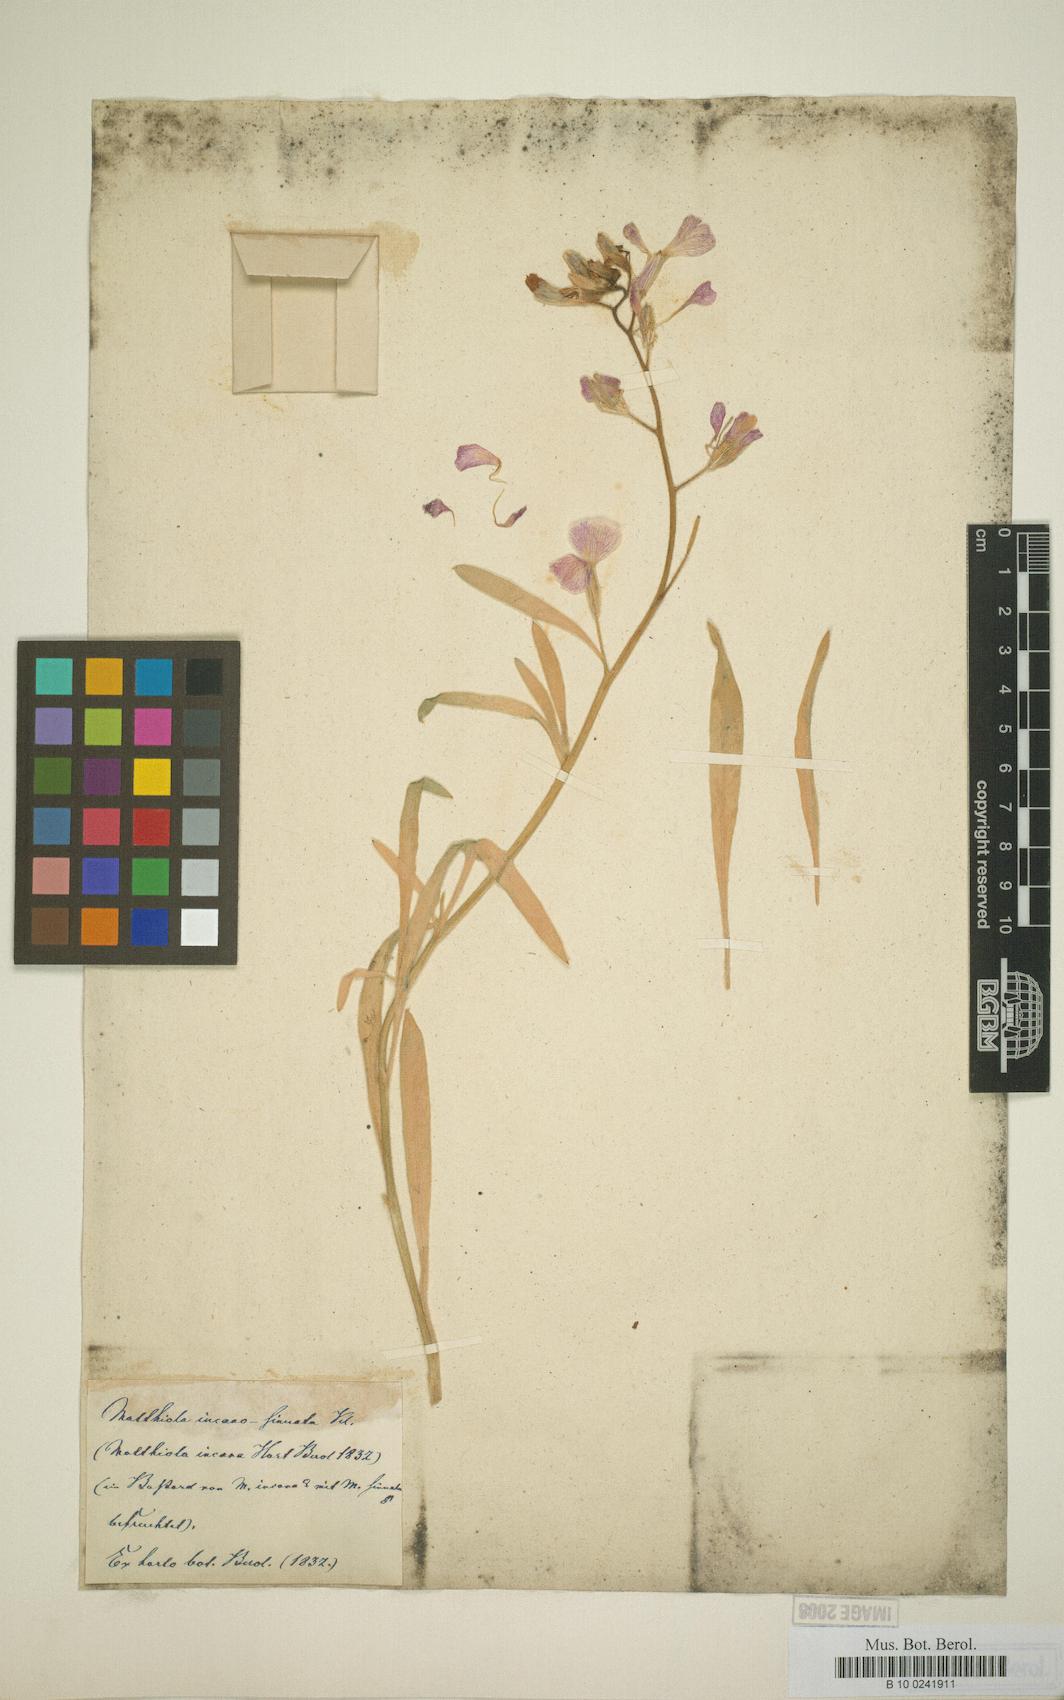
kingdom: Plantae
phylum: Tracheophyta
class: Magnoliopsida
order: Brassicales
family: Brassicaceae
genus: Matthiola
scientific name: Matthiola incana
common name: Hoary stock
